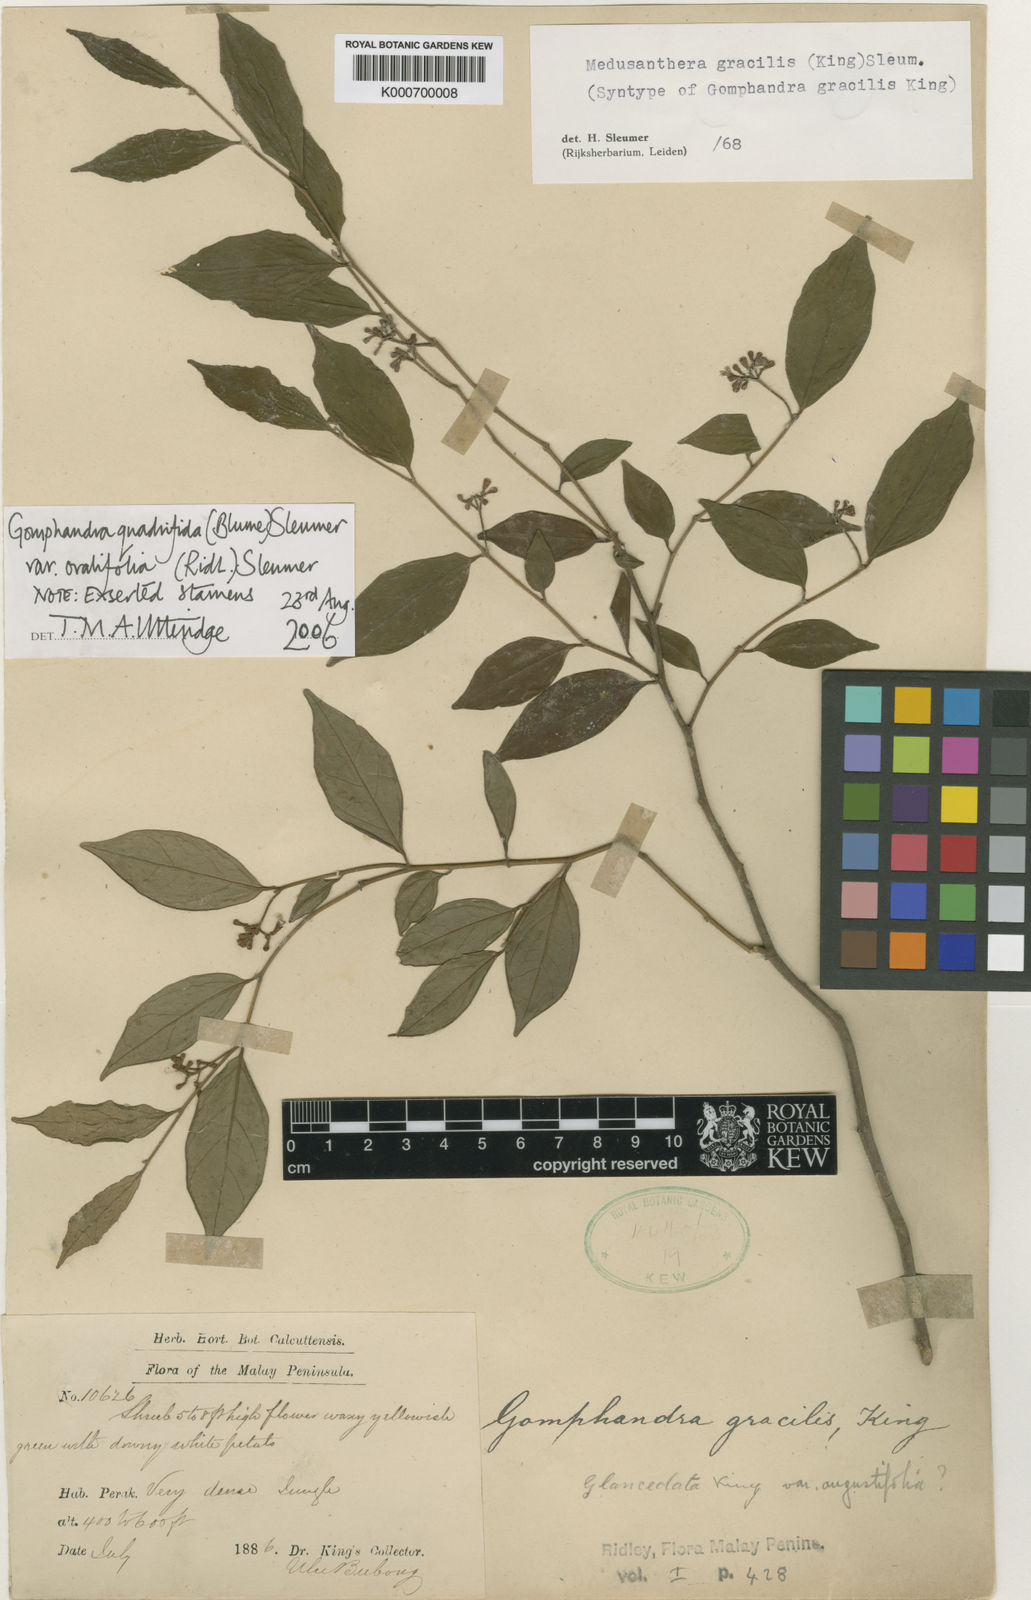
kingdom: Plantae
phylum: Tracheophyta
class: Magnoliopsida
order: Cardiopteridales
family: Stemonuraceae
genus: Gomphandra
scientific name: Gomphandra quadrifida
